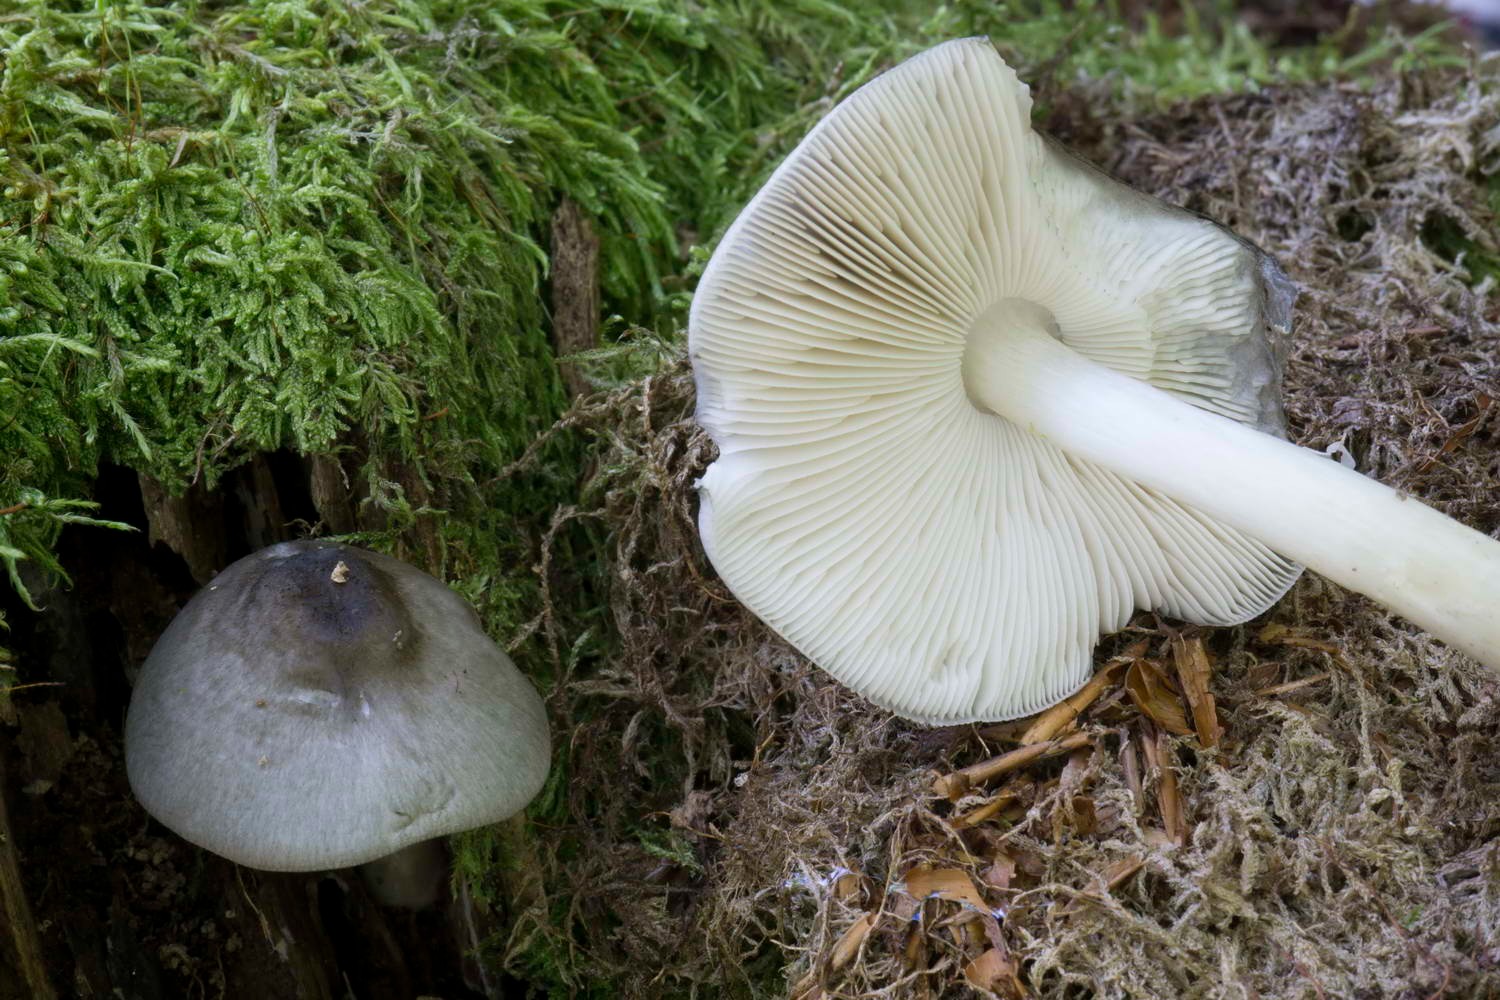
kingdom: Fungi
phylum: Basidiomycota
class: Agaricomycetes
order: Agaricales
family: Pluteaceae
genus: Pluteus
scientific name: Pluteus salicinus
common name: stiv skærmhat
